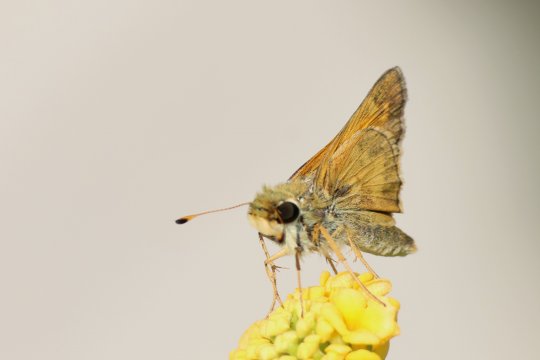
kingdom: Animalia
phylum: Arthropoda
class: Insecta
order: Lepidoptera
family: Hesperiidae
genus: Atalopedes
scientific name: Atalopedes campestris
